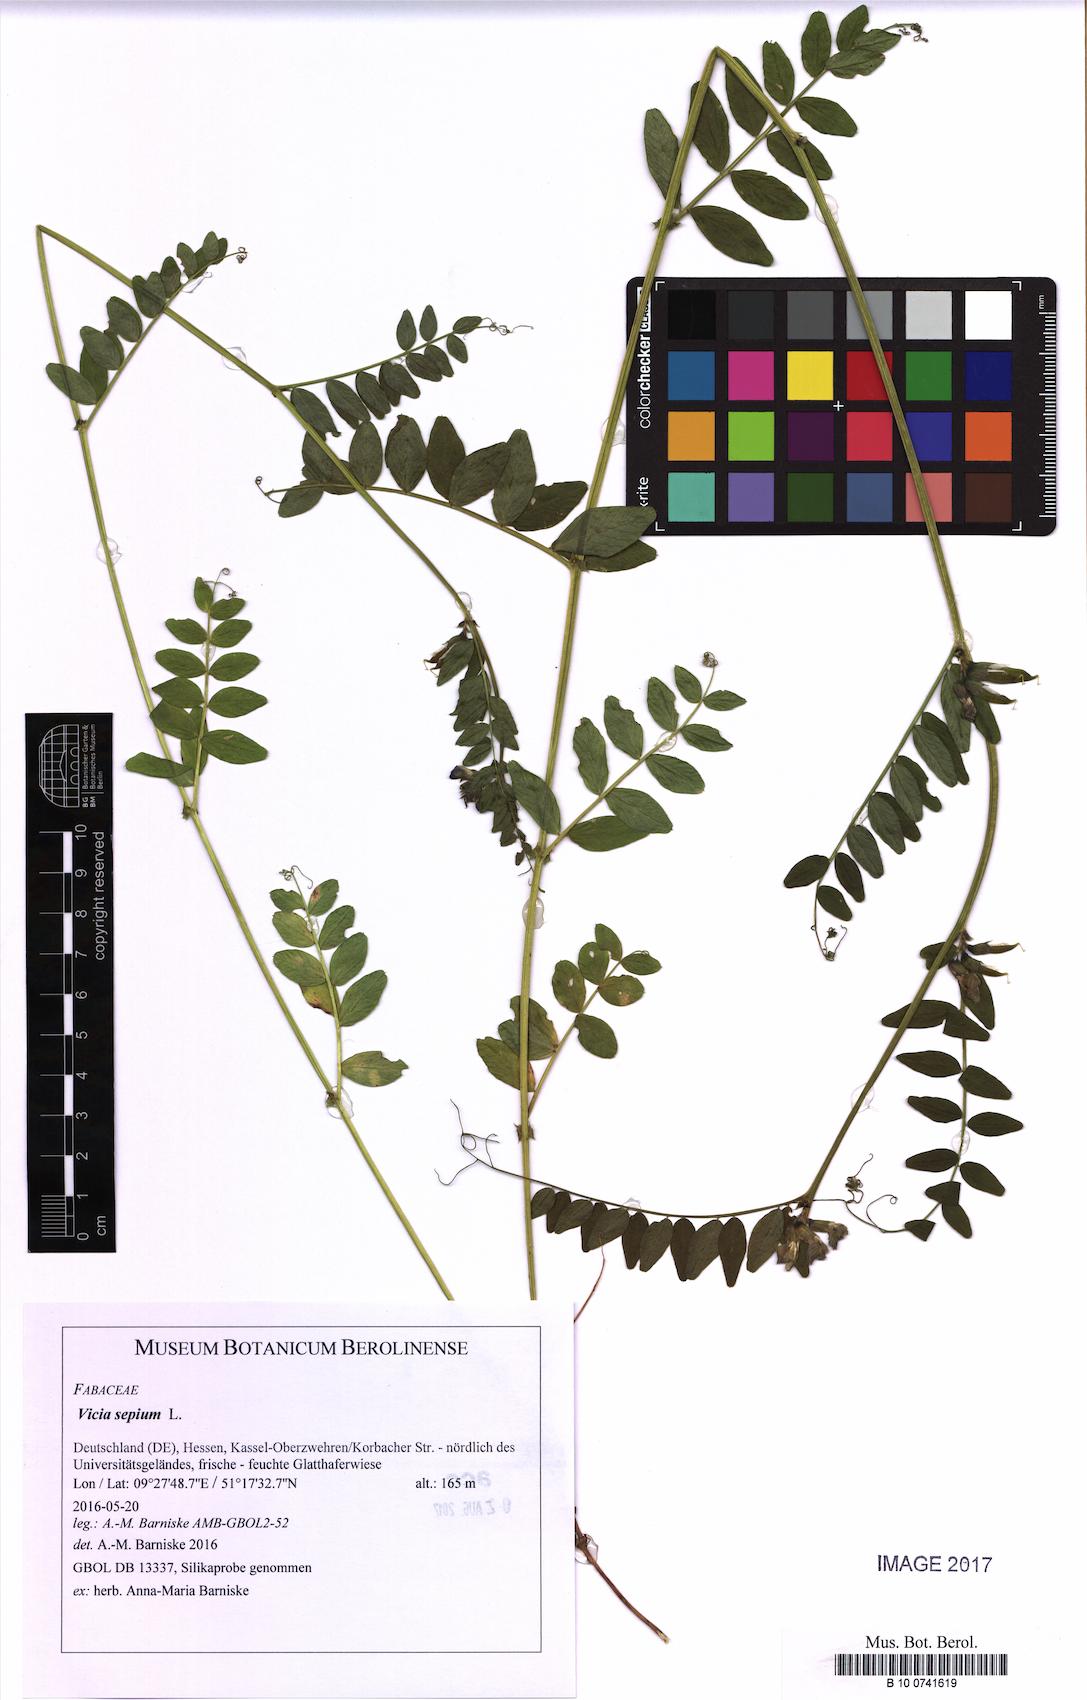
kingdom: Plantae
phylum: Tracheophyta
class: Magnoliopsida
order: Fabales
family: Fabaceae
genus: Vicia
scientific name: Vicia sepium
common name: Bush vetch
